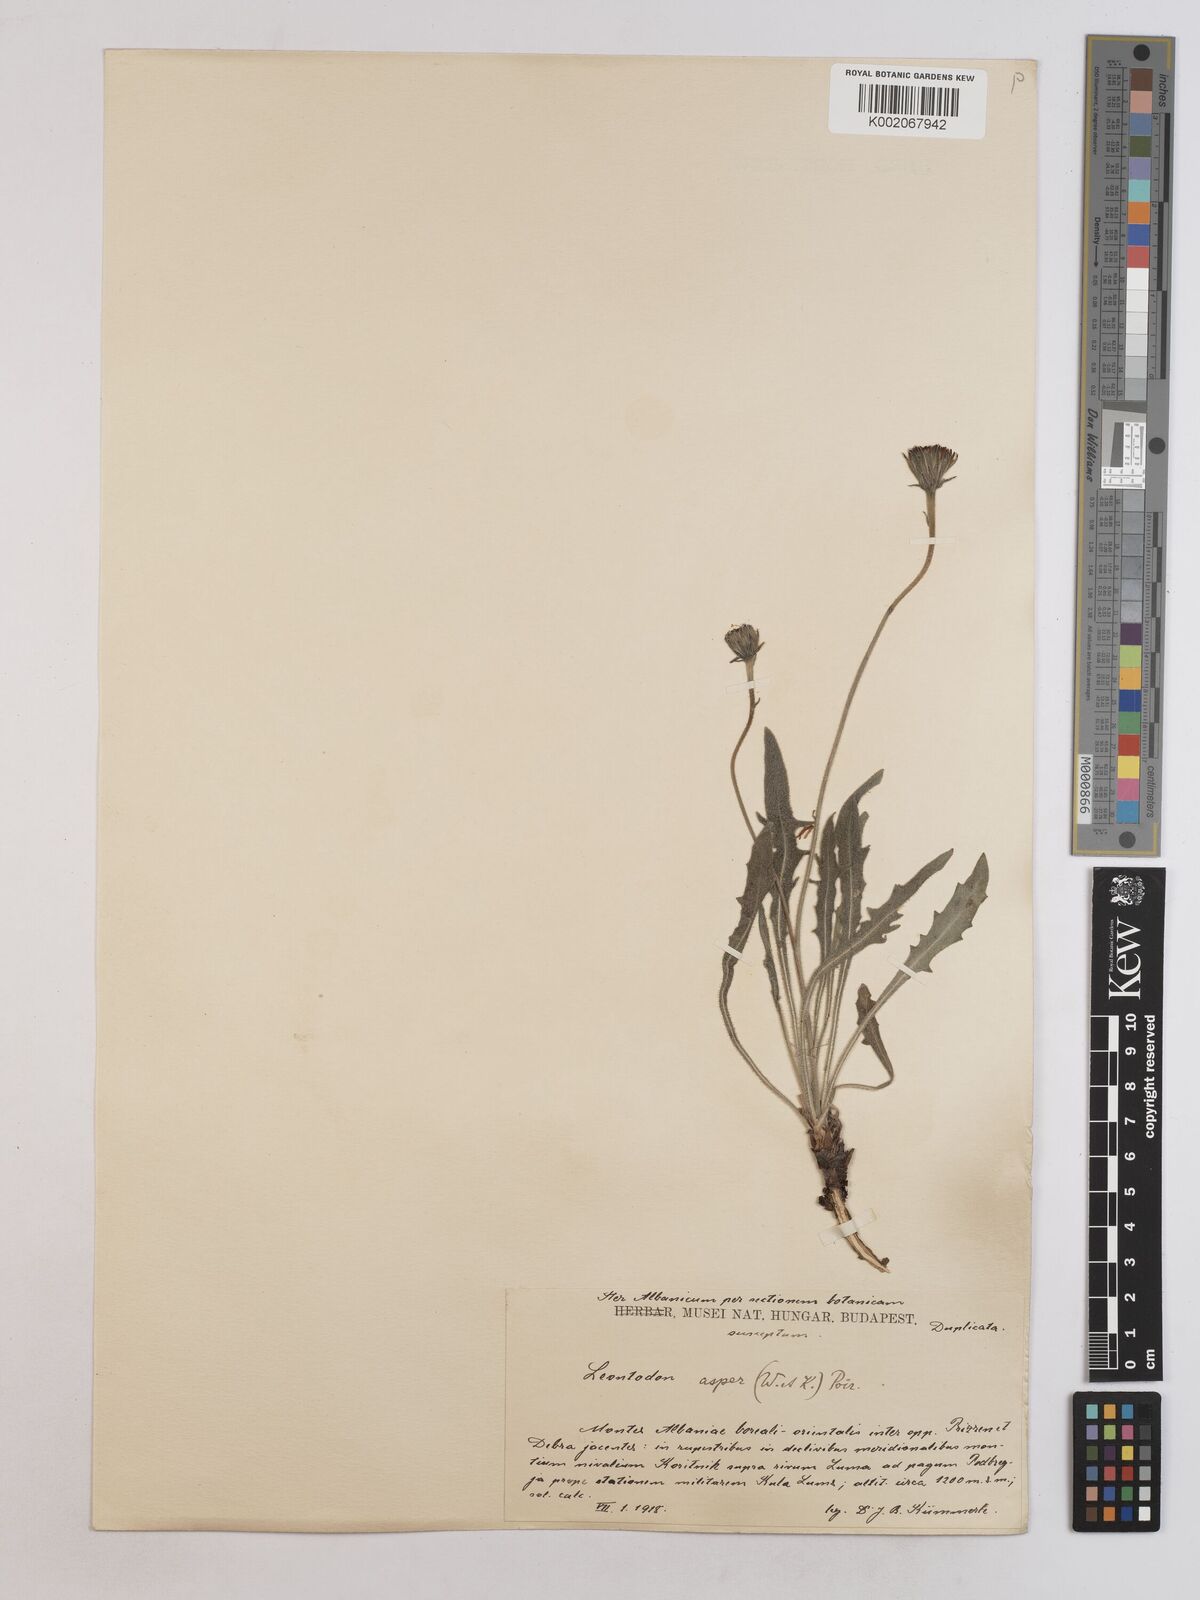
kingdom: Plantae
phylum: Tracheophyta
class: Magnoliopsida
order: Asterales
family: Asteraceae
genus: Leontodon
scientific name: Leontodon
